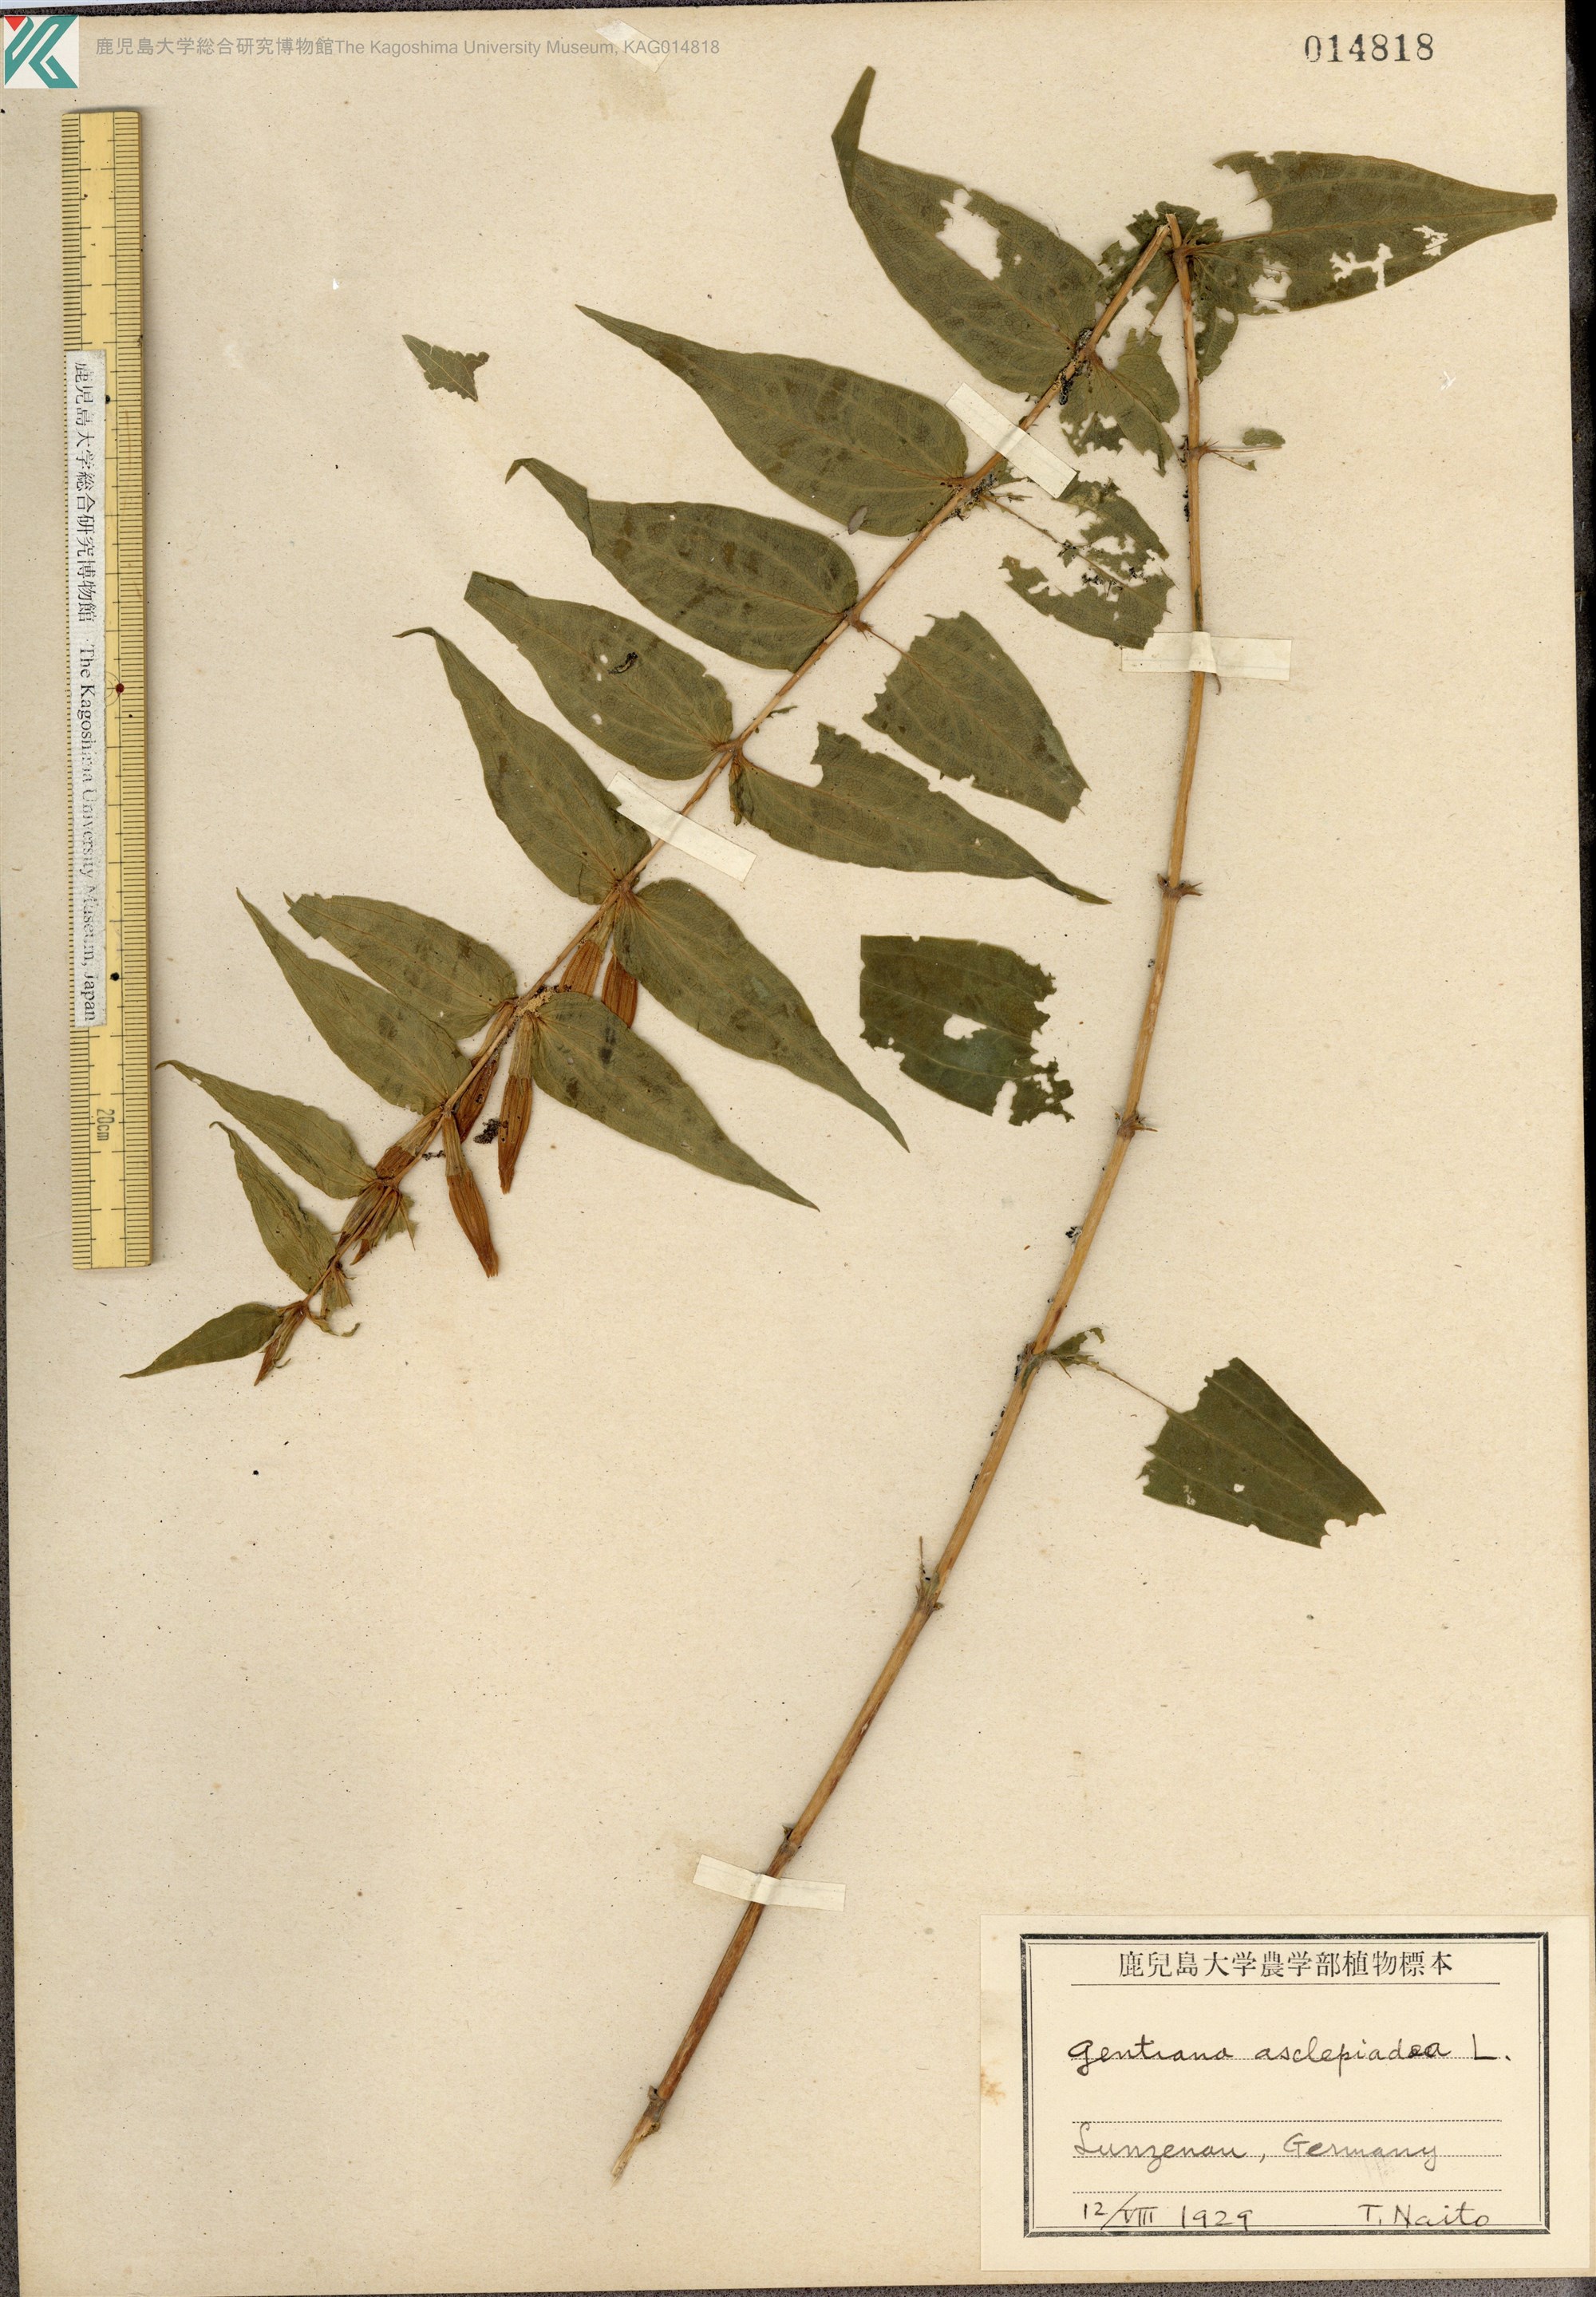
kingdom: Plantae
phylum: Tracheophyta
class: Magnoliopsida
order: Gentianales
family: Gentianaceae
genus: Gentiana
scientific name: Gentiana asclepiadea
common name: Willow gentian
